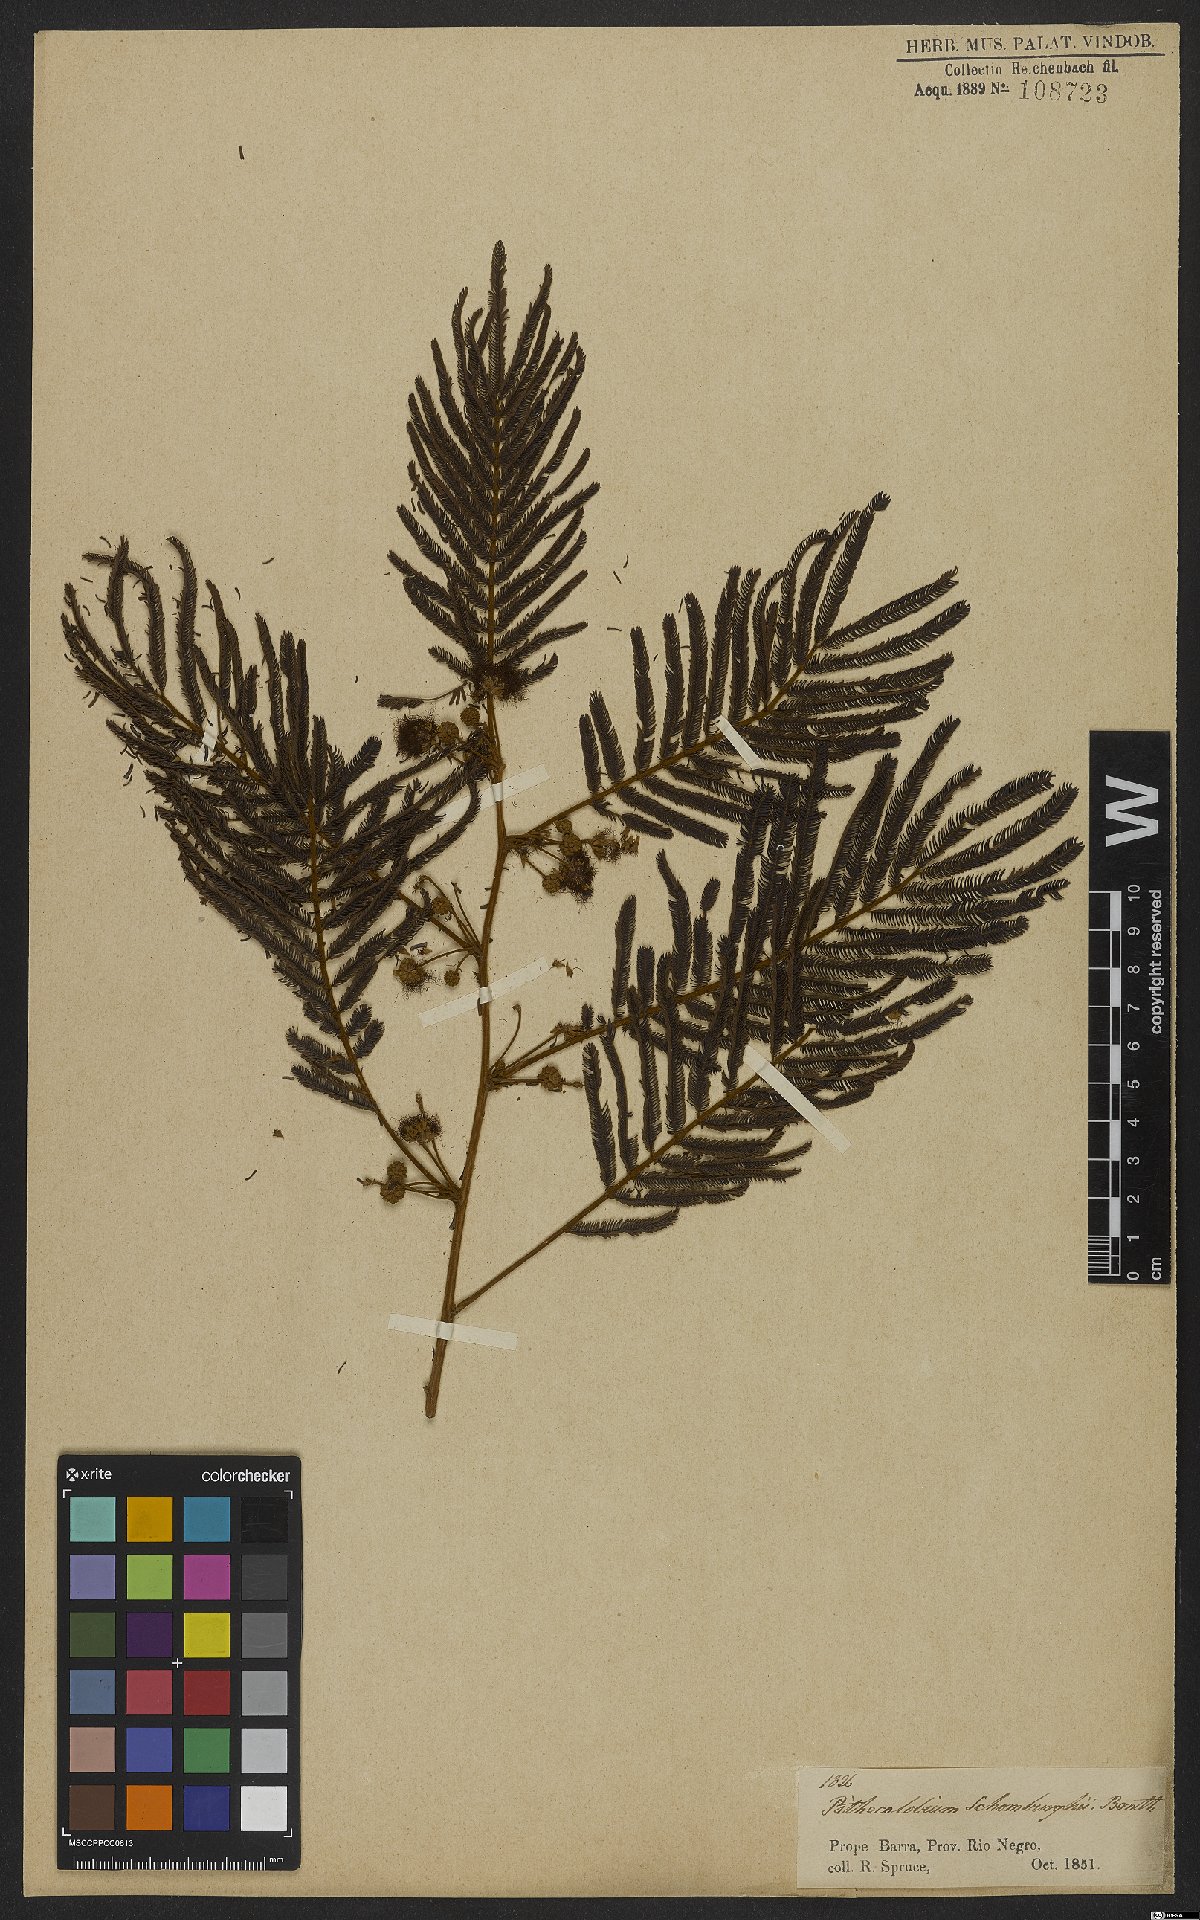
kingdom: Plantae
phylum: Tracheophyta
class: Magnoliopsida
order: Fabales
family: Fabaceae
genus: Enterolobium
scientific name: Enterolobium schomburgkii
